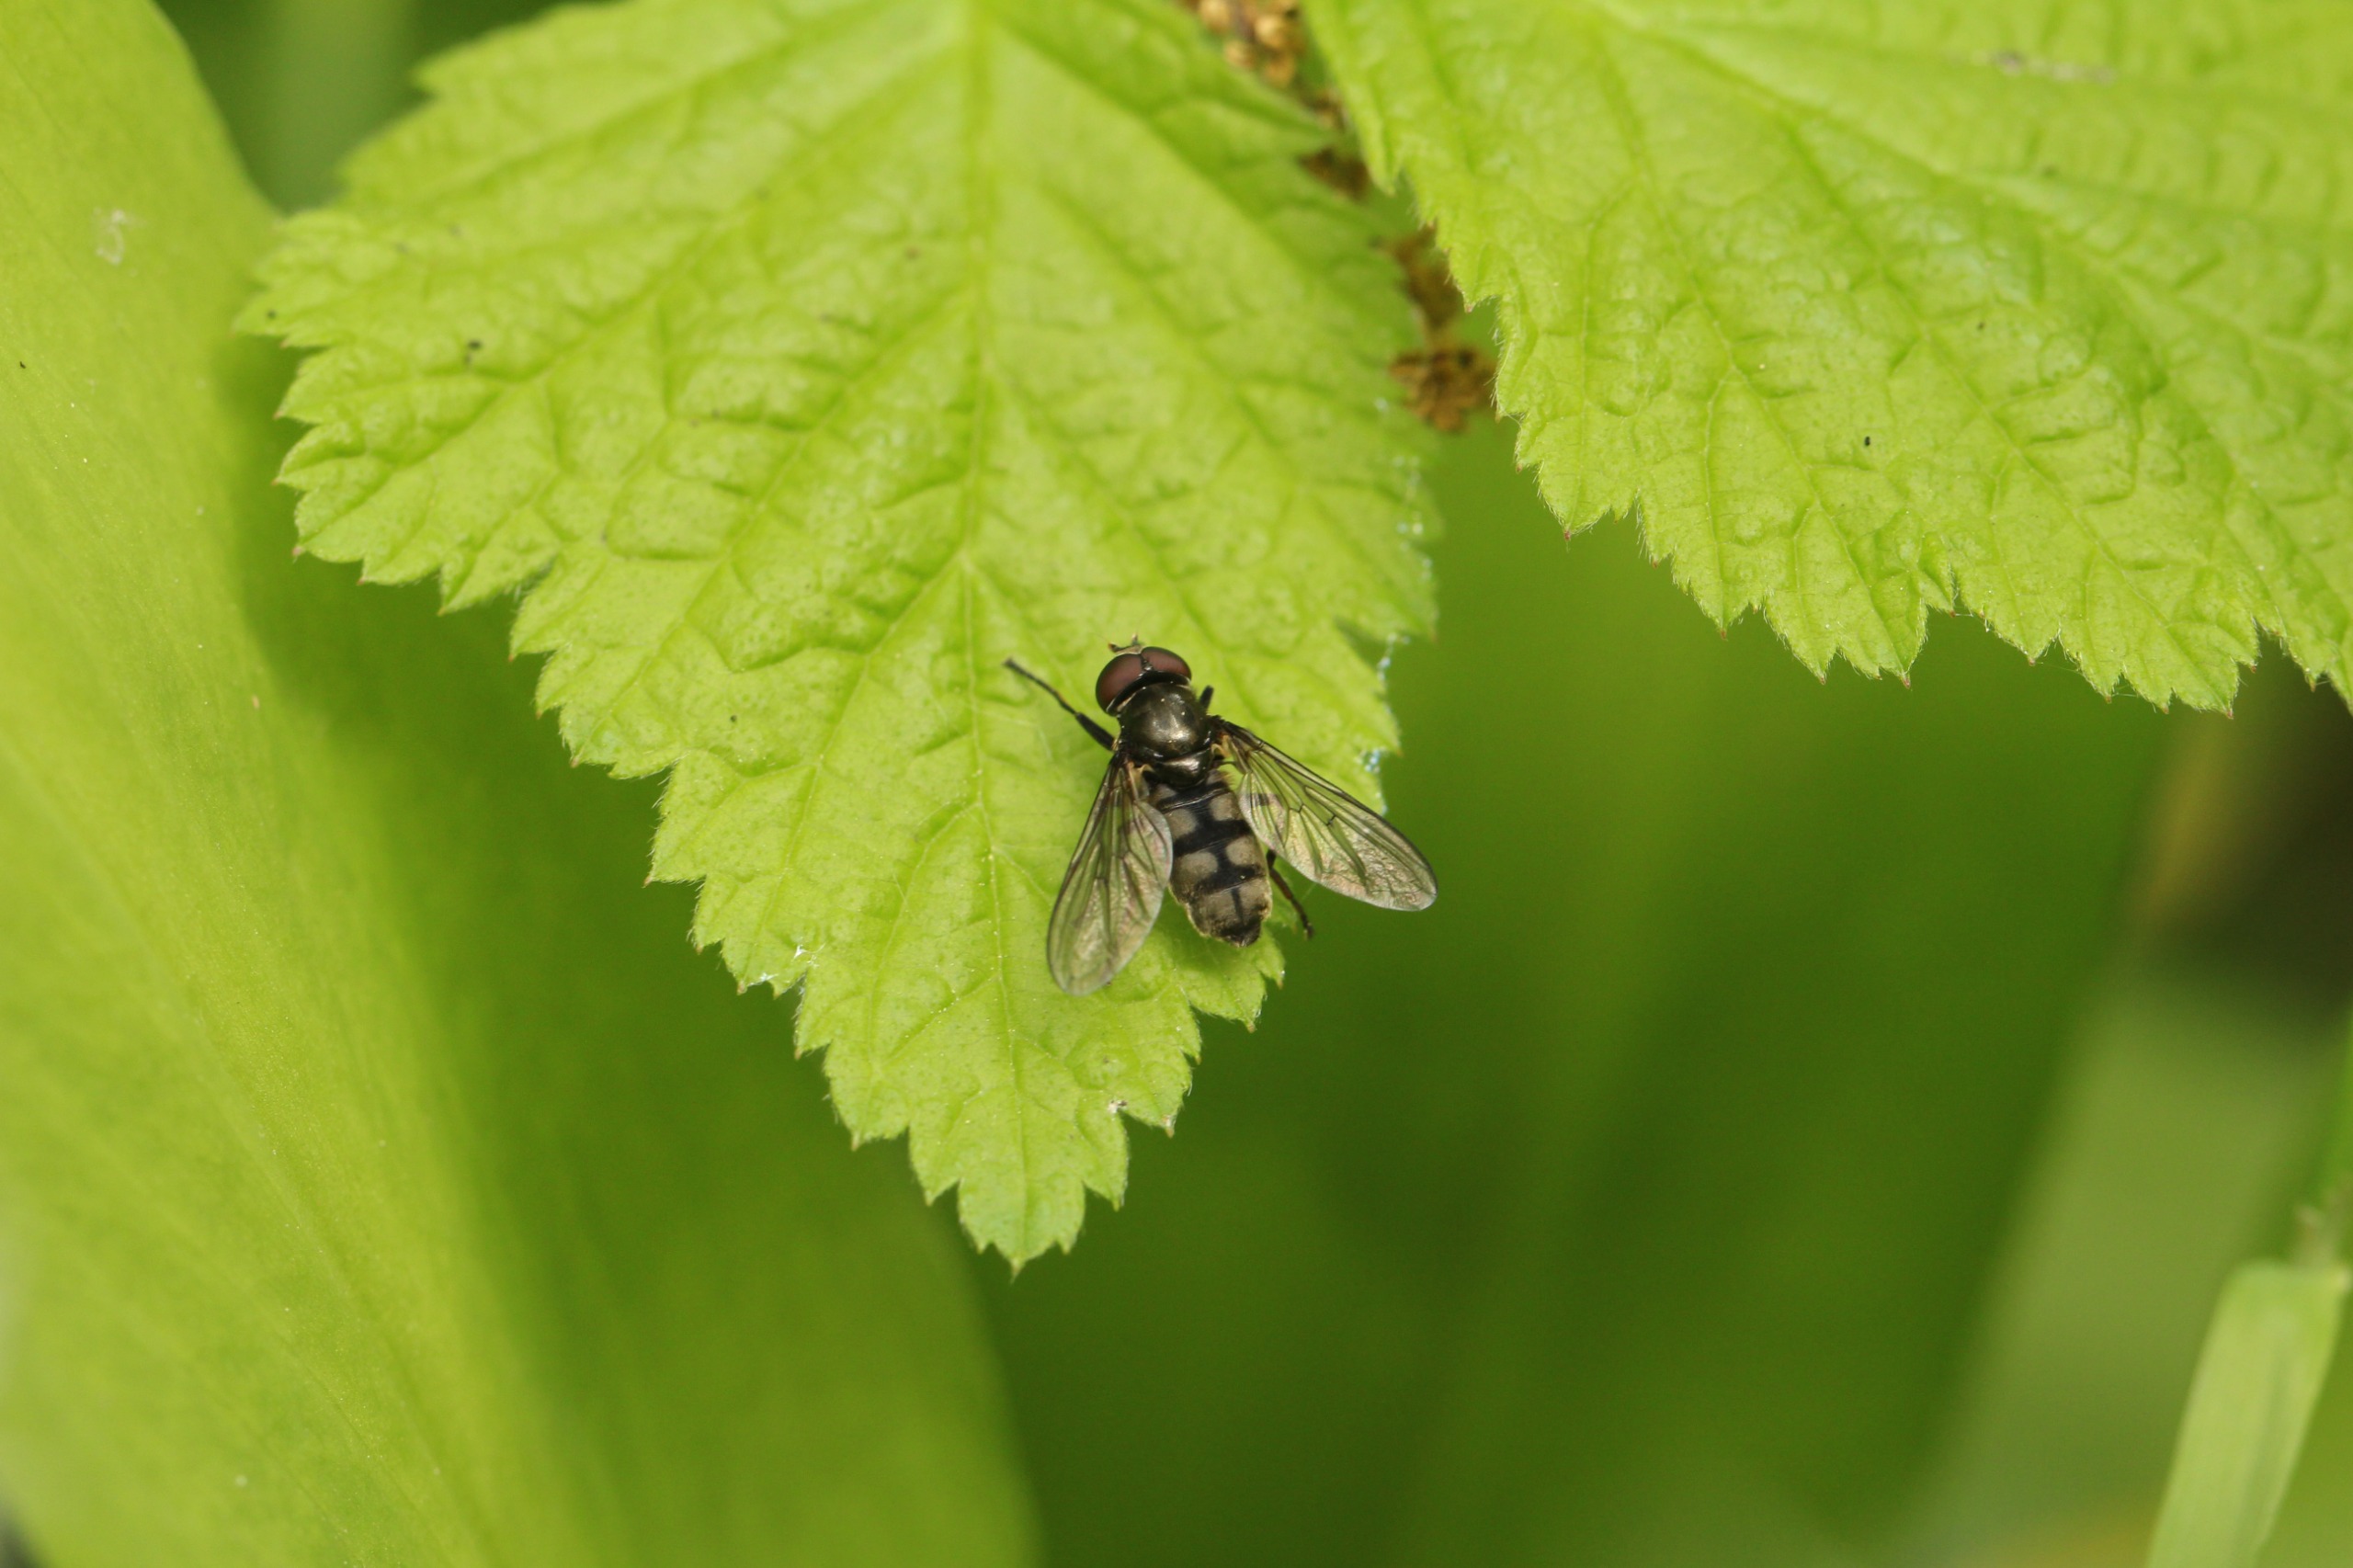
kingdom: Animalia
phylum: Arthropoda
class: Insecta
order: Diptera
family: Syrphidae
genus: Portevinia
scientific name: Portevinia maculata
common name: Ramsløg-svirreflue
